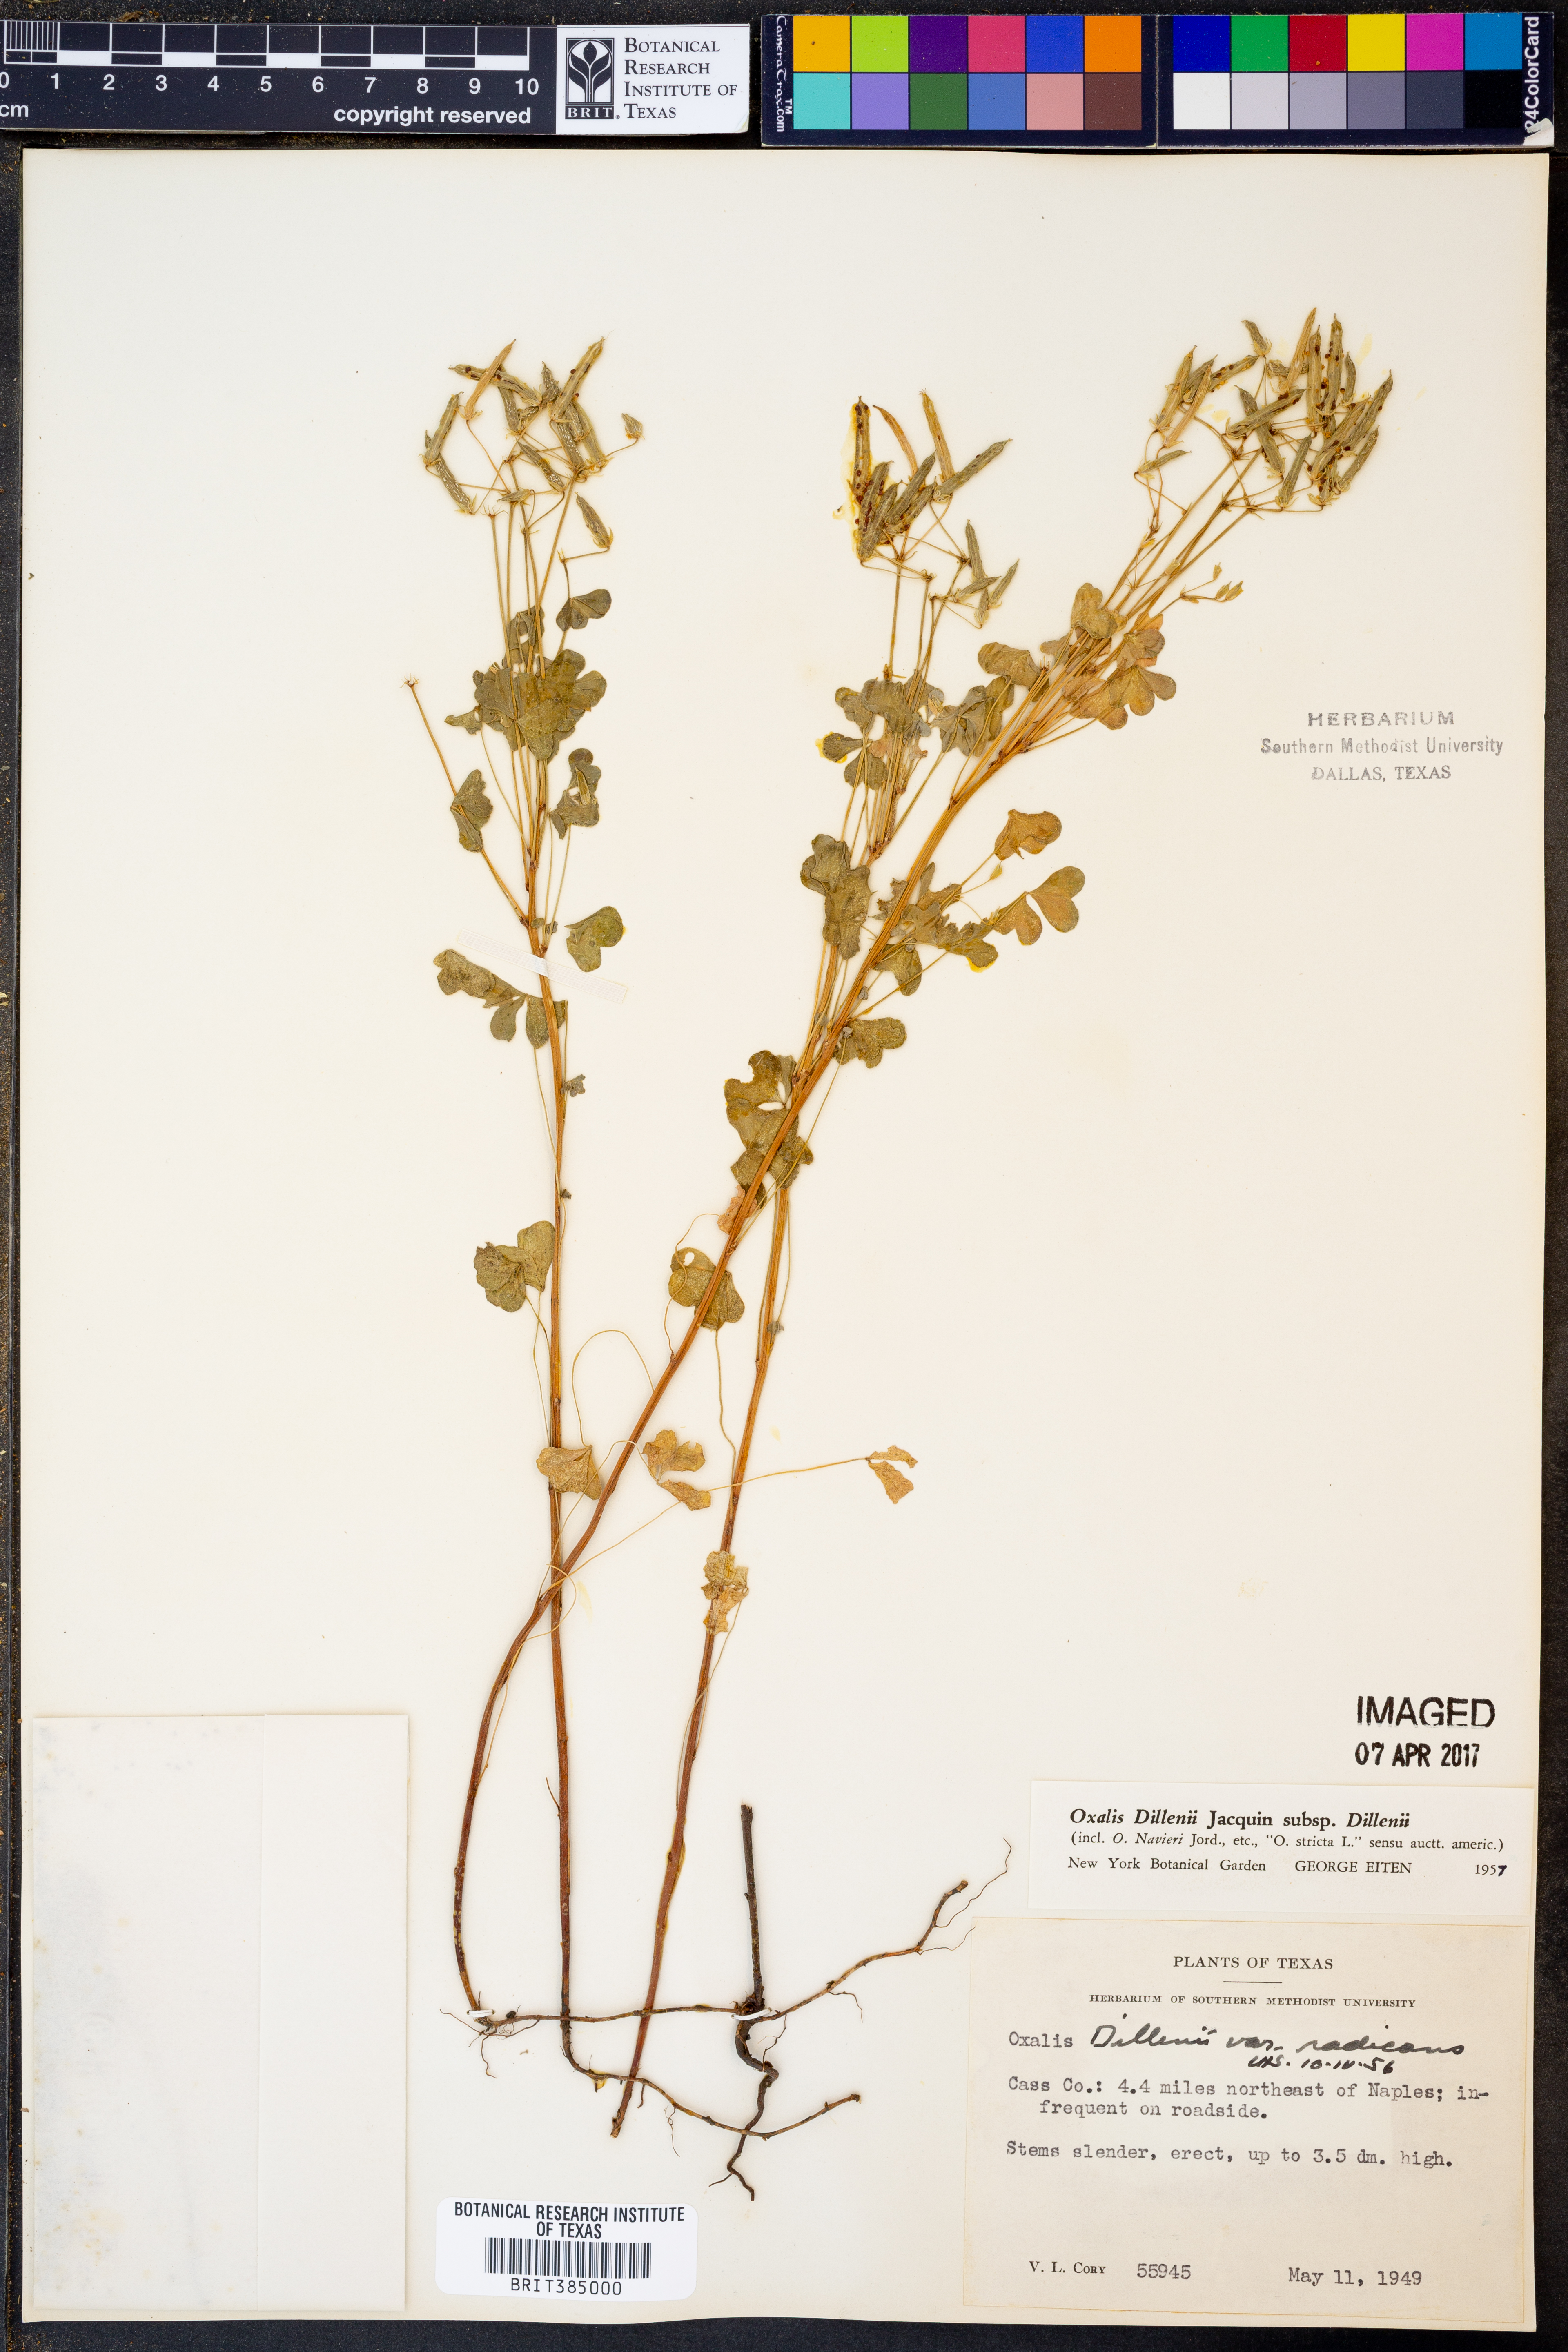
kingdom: Plantae
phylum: Tracheophyta
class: Magnoliopsida
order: Oxalidales
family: Oxalidaceae
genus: Oxalis
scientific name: Oxalis dillenii
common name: Sussex yellow-sorrel
